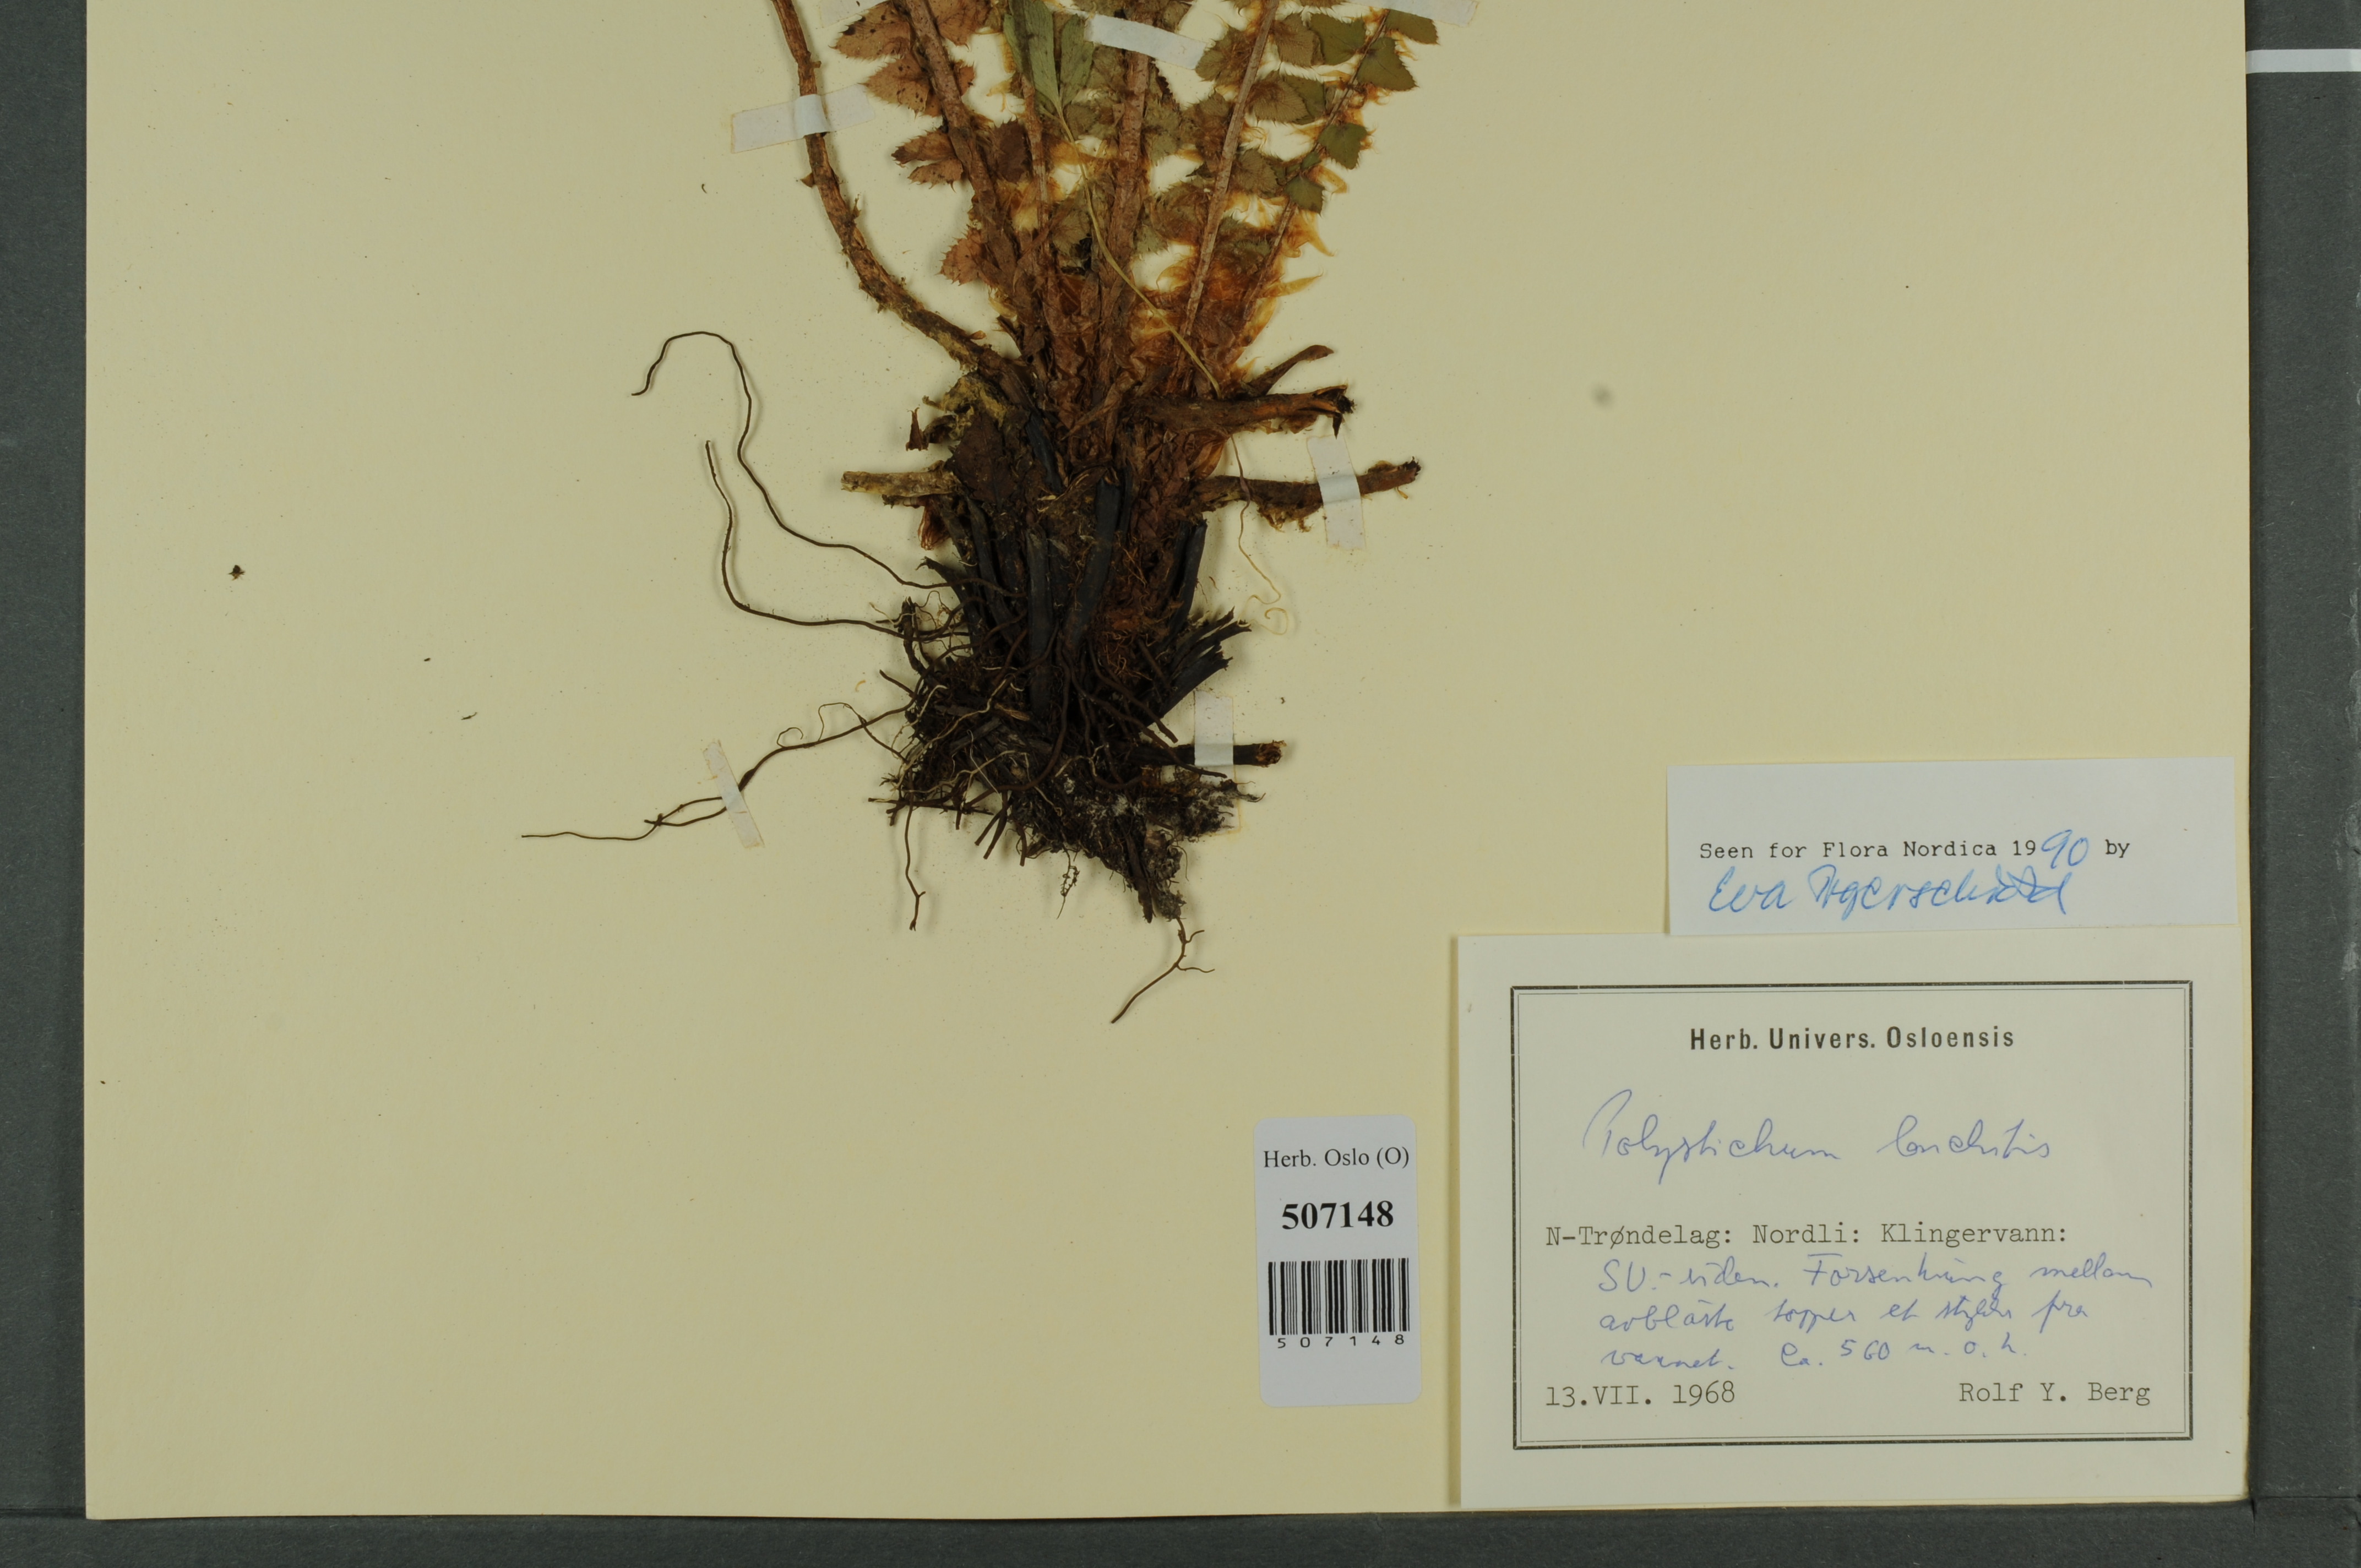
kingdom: Plantae
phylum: Tracheophyta
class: Polypodiopsida
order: Polypodiales
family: Dryopteridaceae
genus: Polystichum
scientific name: Polystichum lonchitis
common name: Holly fern
